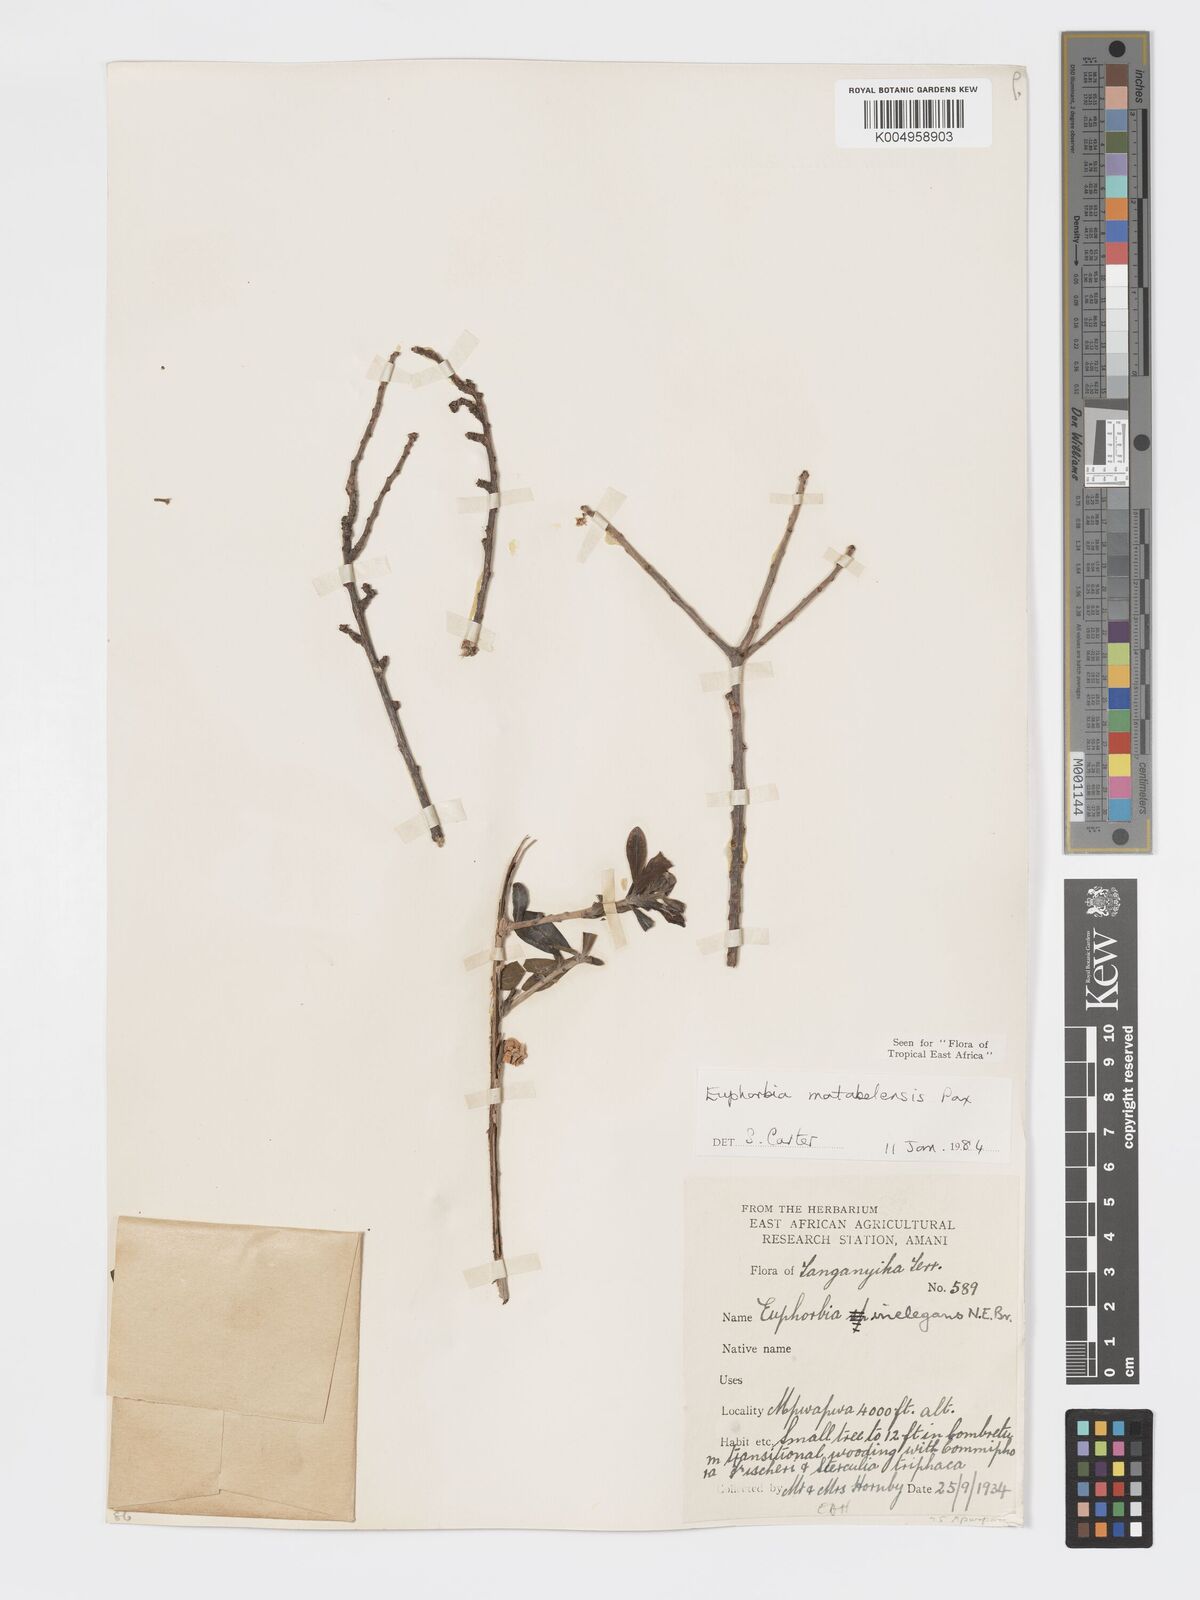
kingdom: Plantae
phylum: Tracheophyta
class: Magnoliopsida
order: Malpighiales
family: Euphorbiaceae
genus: Euphorbia
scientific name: Euphorbia matabelensis
